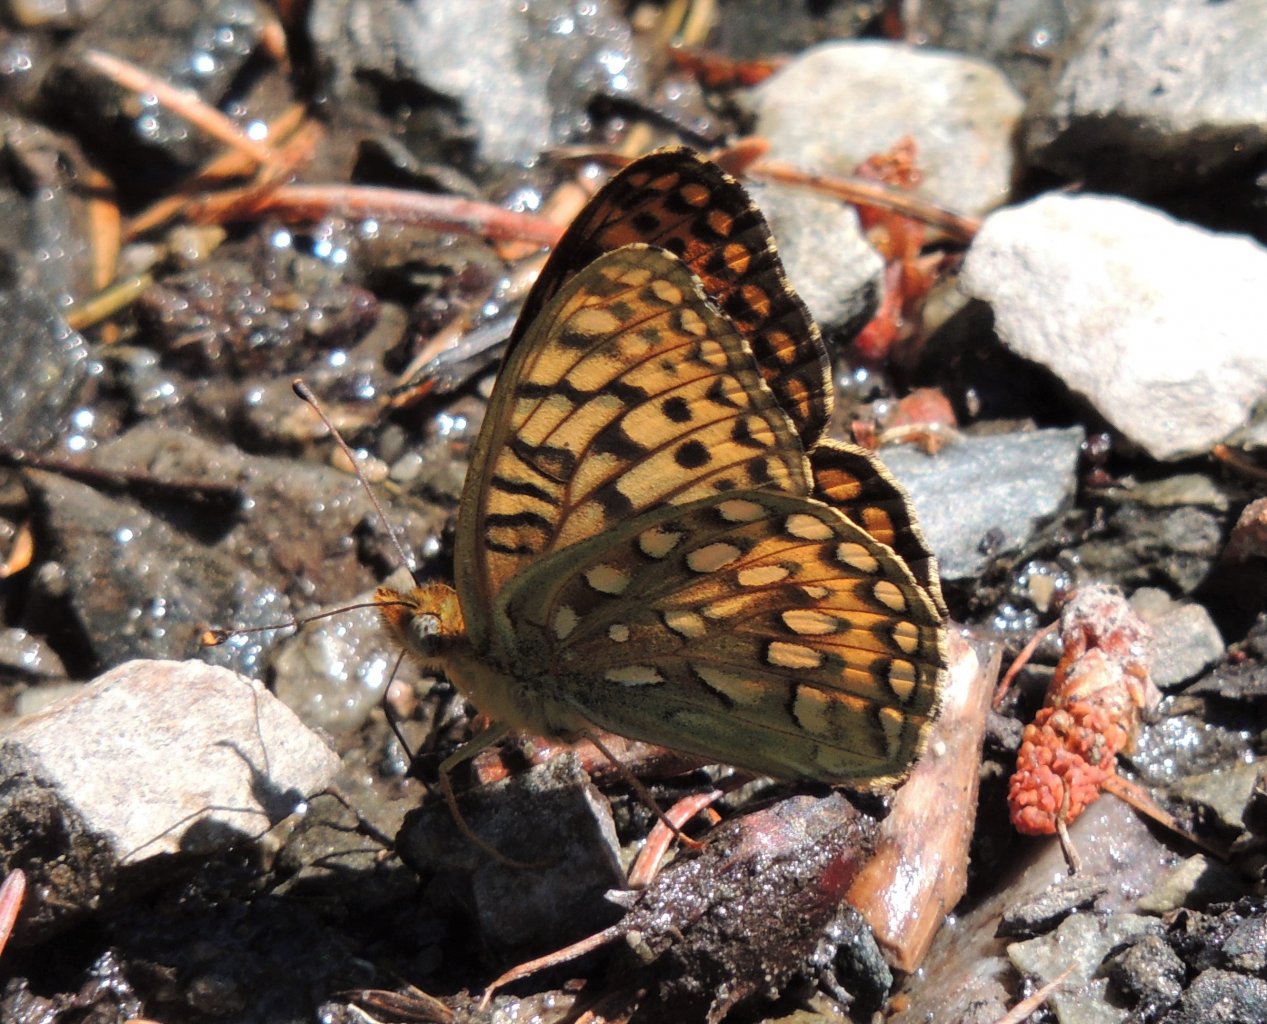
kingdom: Animalia
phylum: Arthropoda
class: Insecta
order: Lepidoptera
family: Nymphalidae
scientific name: Nymphalidae
